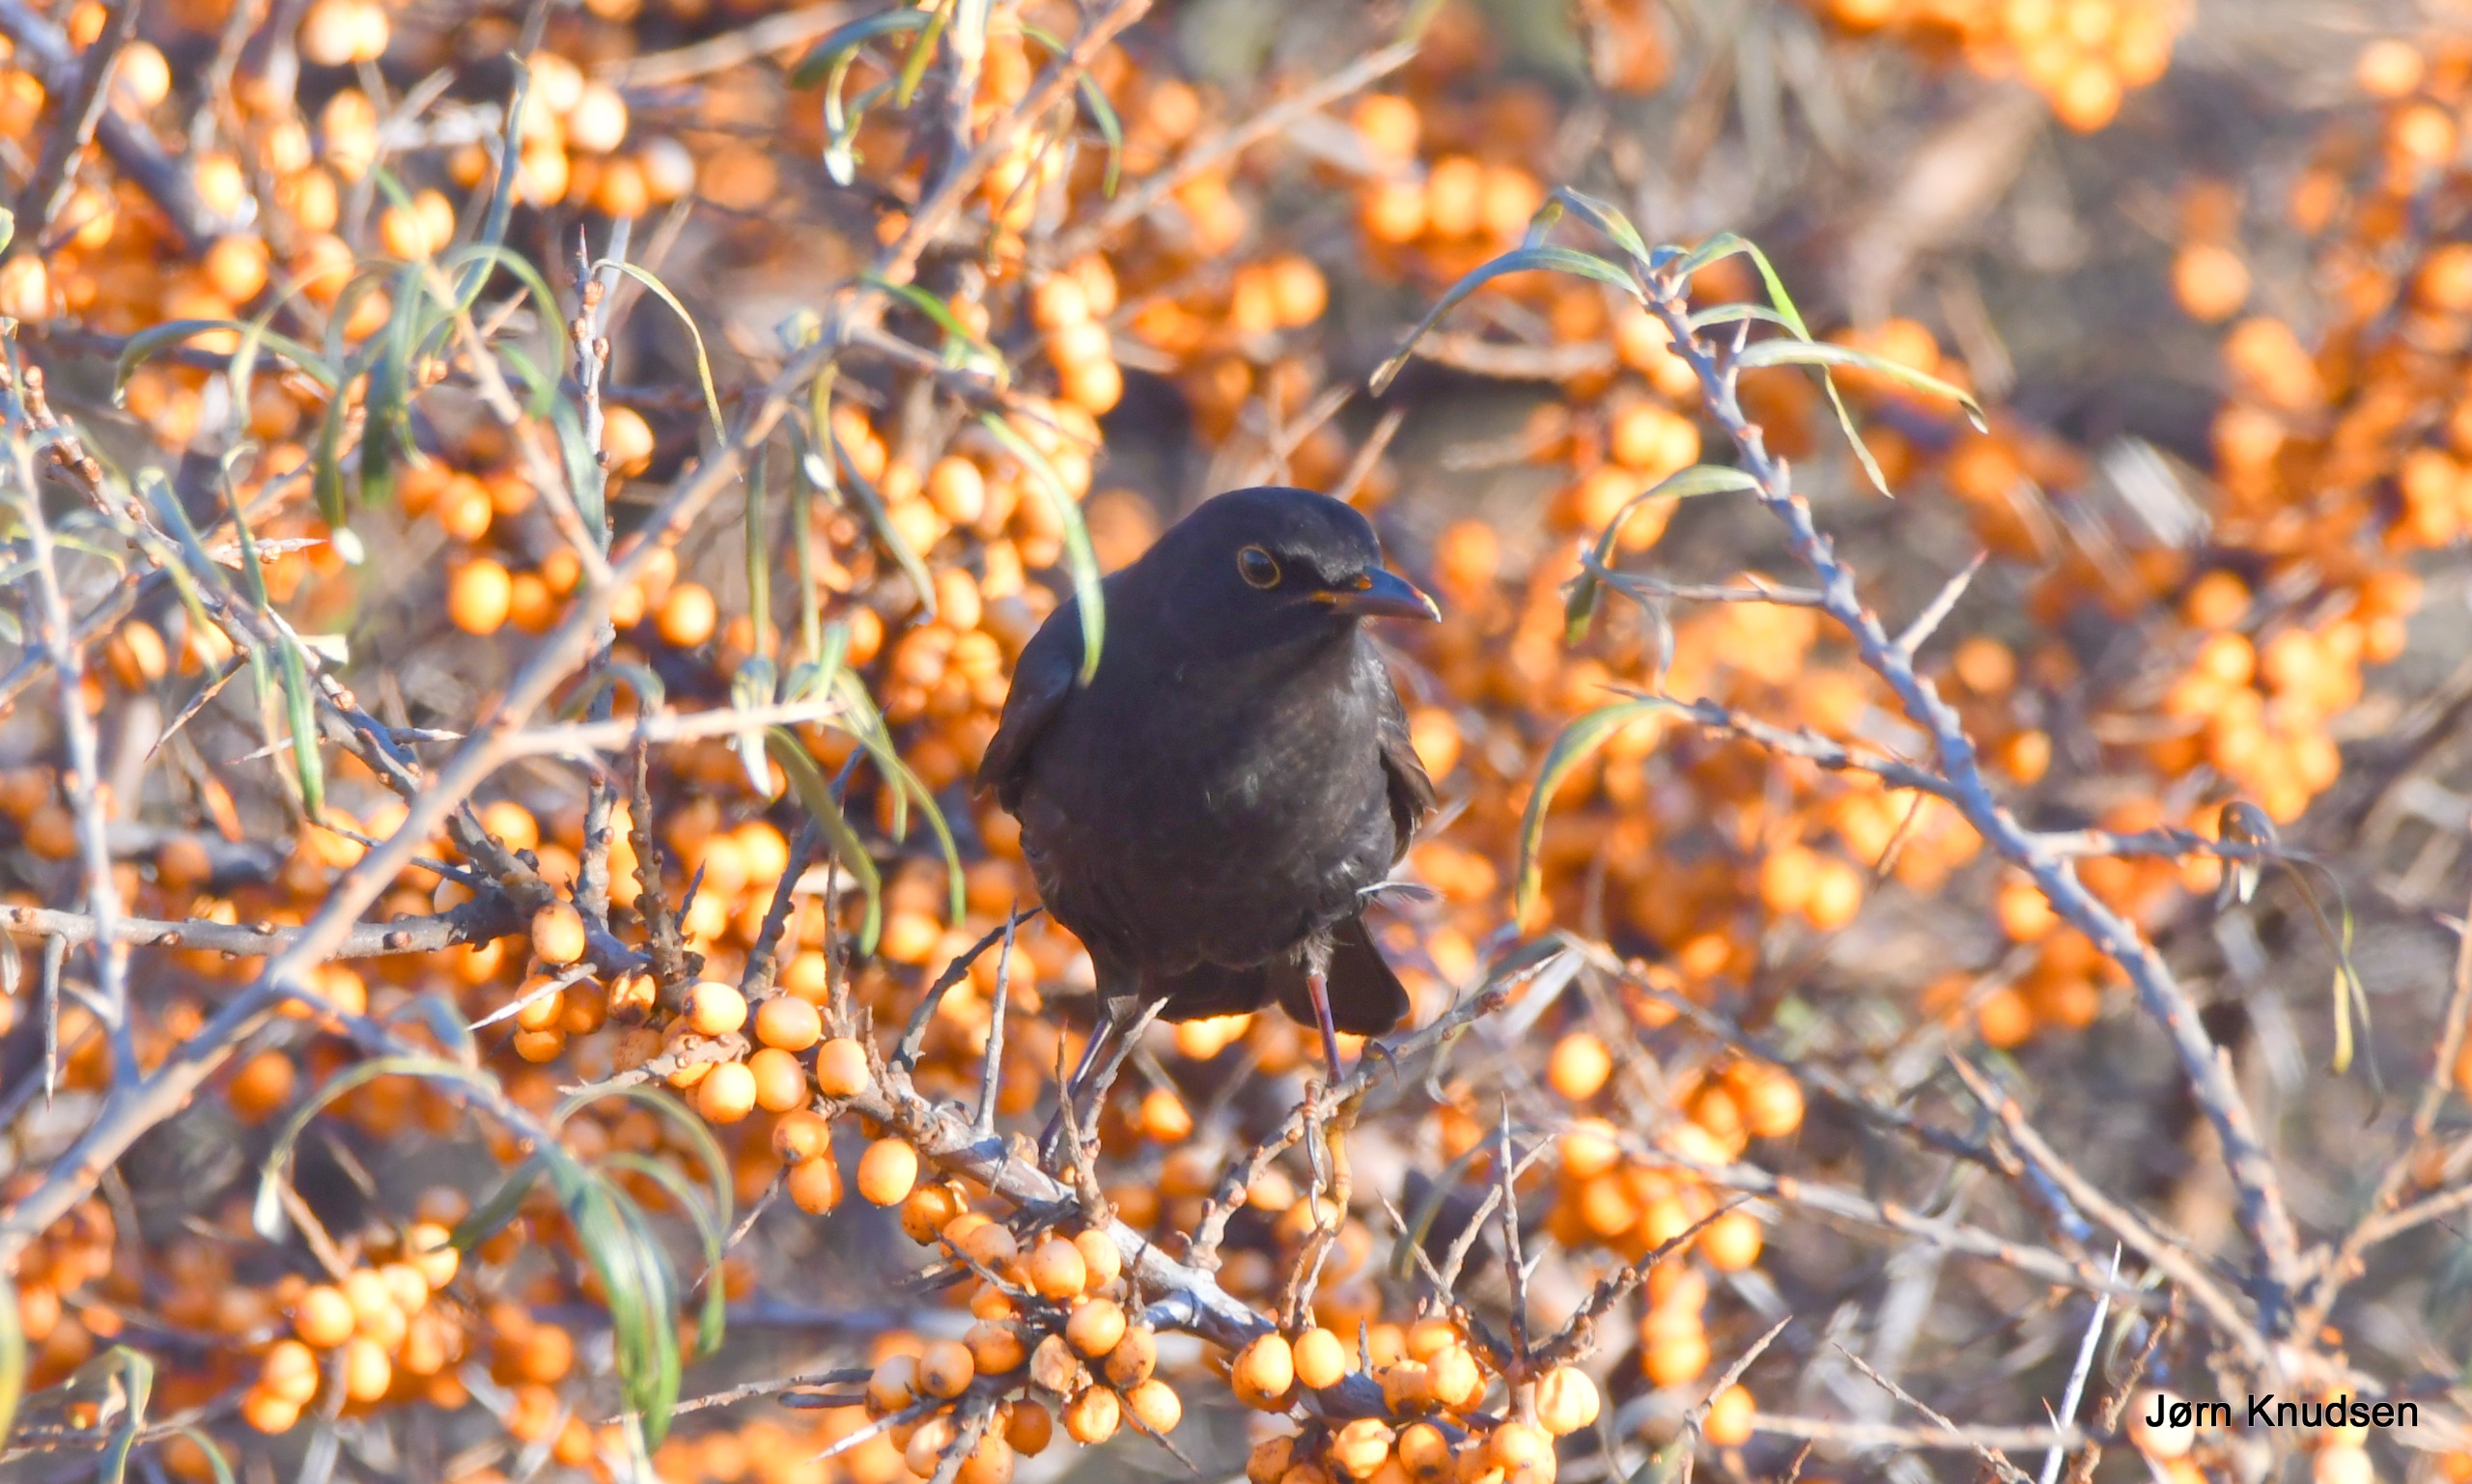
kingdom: Animalia
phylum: Chordata
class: Aves
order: Passeriformes
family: Turdidae
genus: Turdus
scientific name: Turdus merula
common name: Solsort
